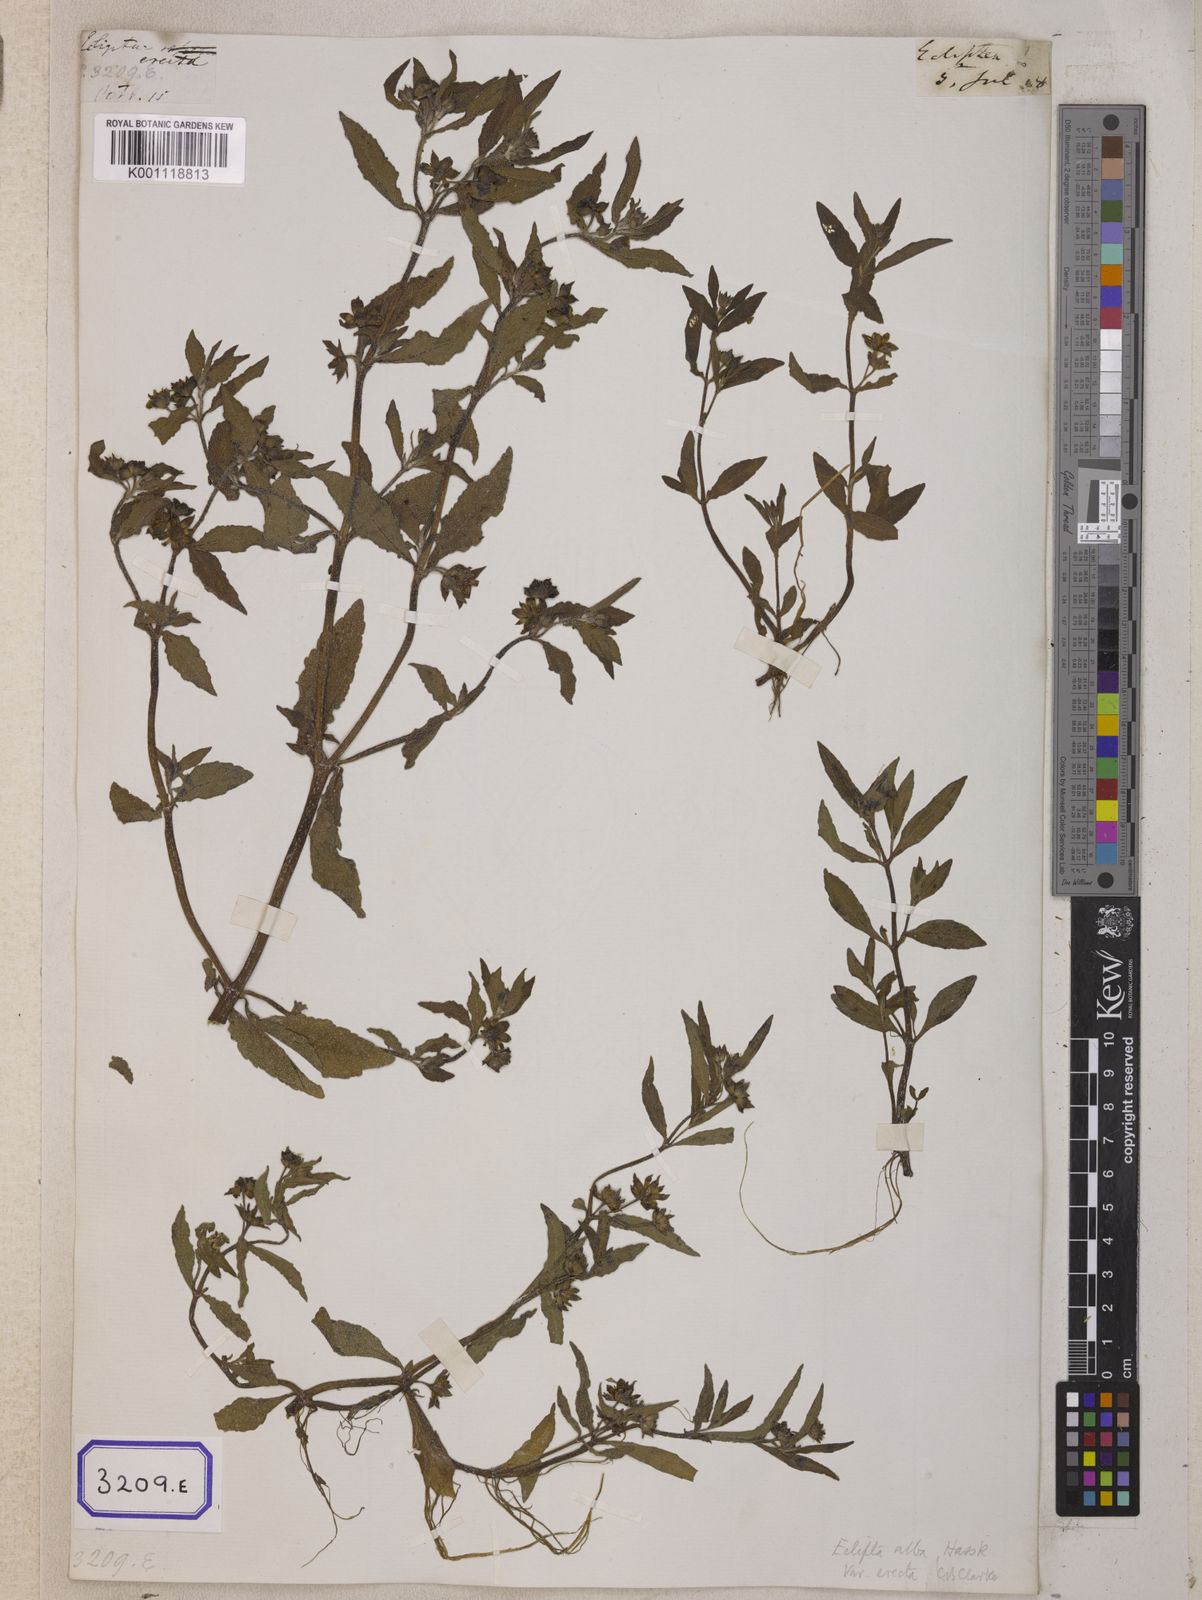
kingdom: Plantae
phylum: Tracheophyta
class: Magnoliopsida
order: Asterales
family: Asteraceae
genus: Eclipta
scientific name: Eclipta prostrata
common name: False daisy
